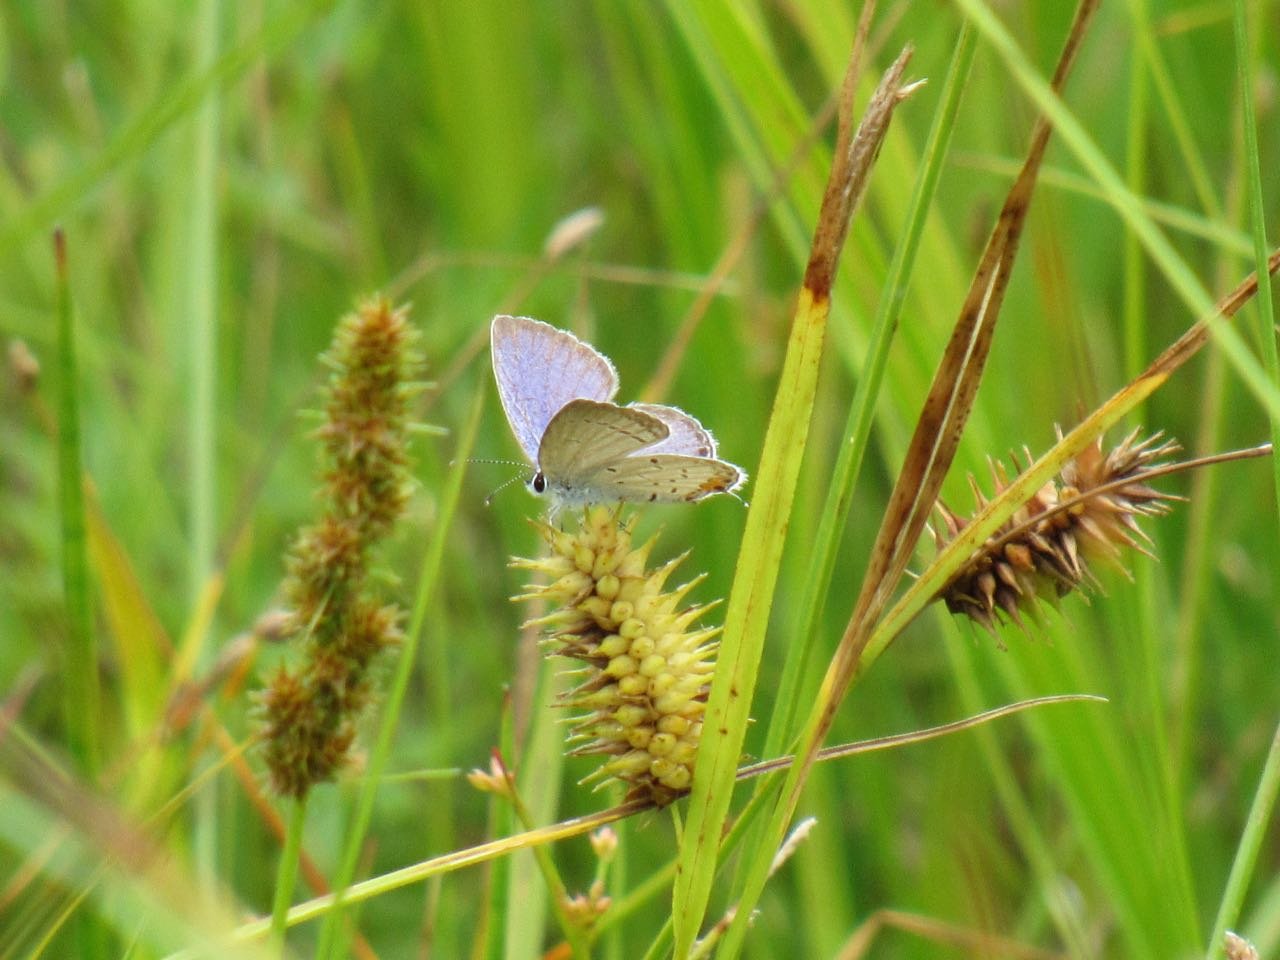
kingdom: Animalia
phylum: Arthropoda
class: Insecta
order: Lepidoptera
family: Lycaenidae
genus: Elkalyce
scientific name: Elkalyce comyntas
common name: Eastern Tailed-Blue
